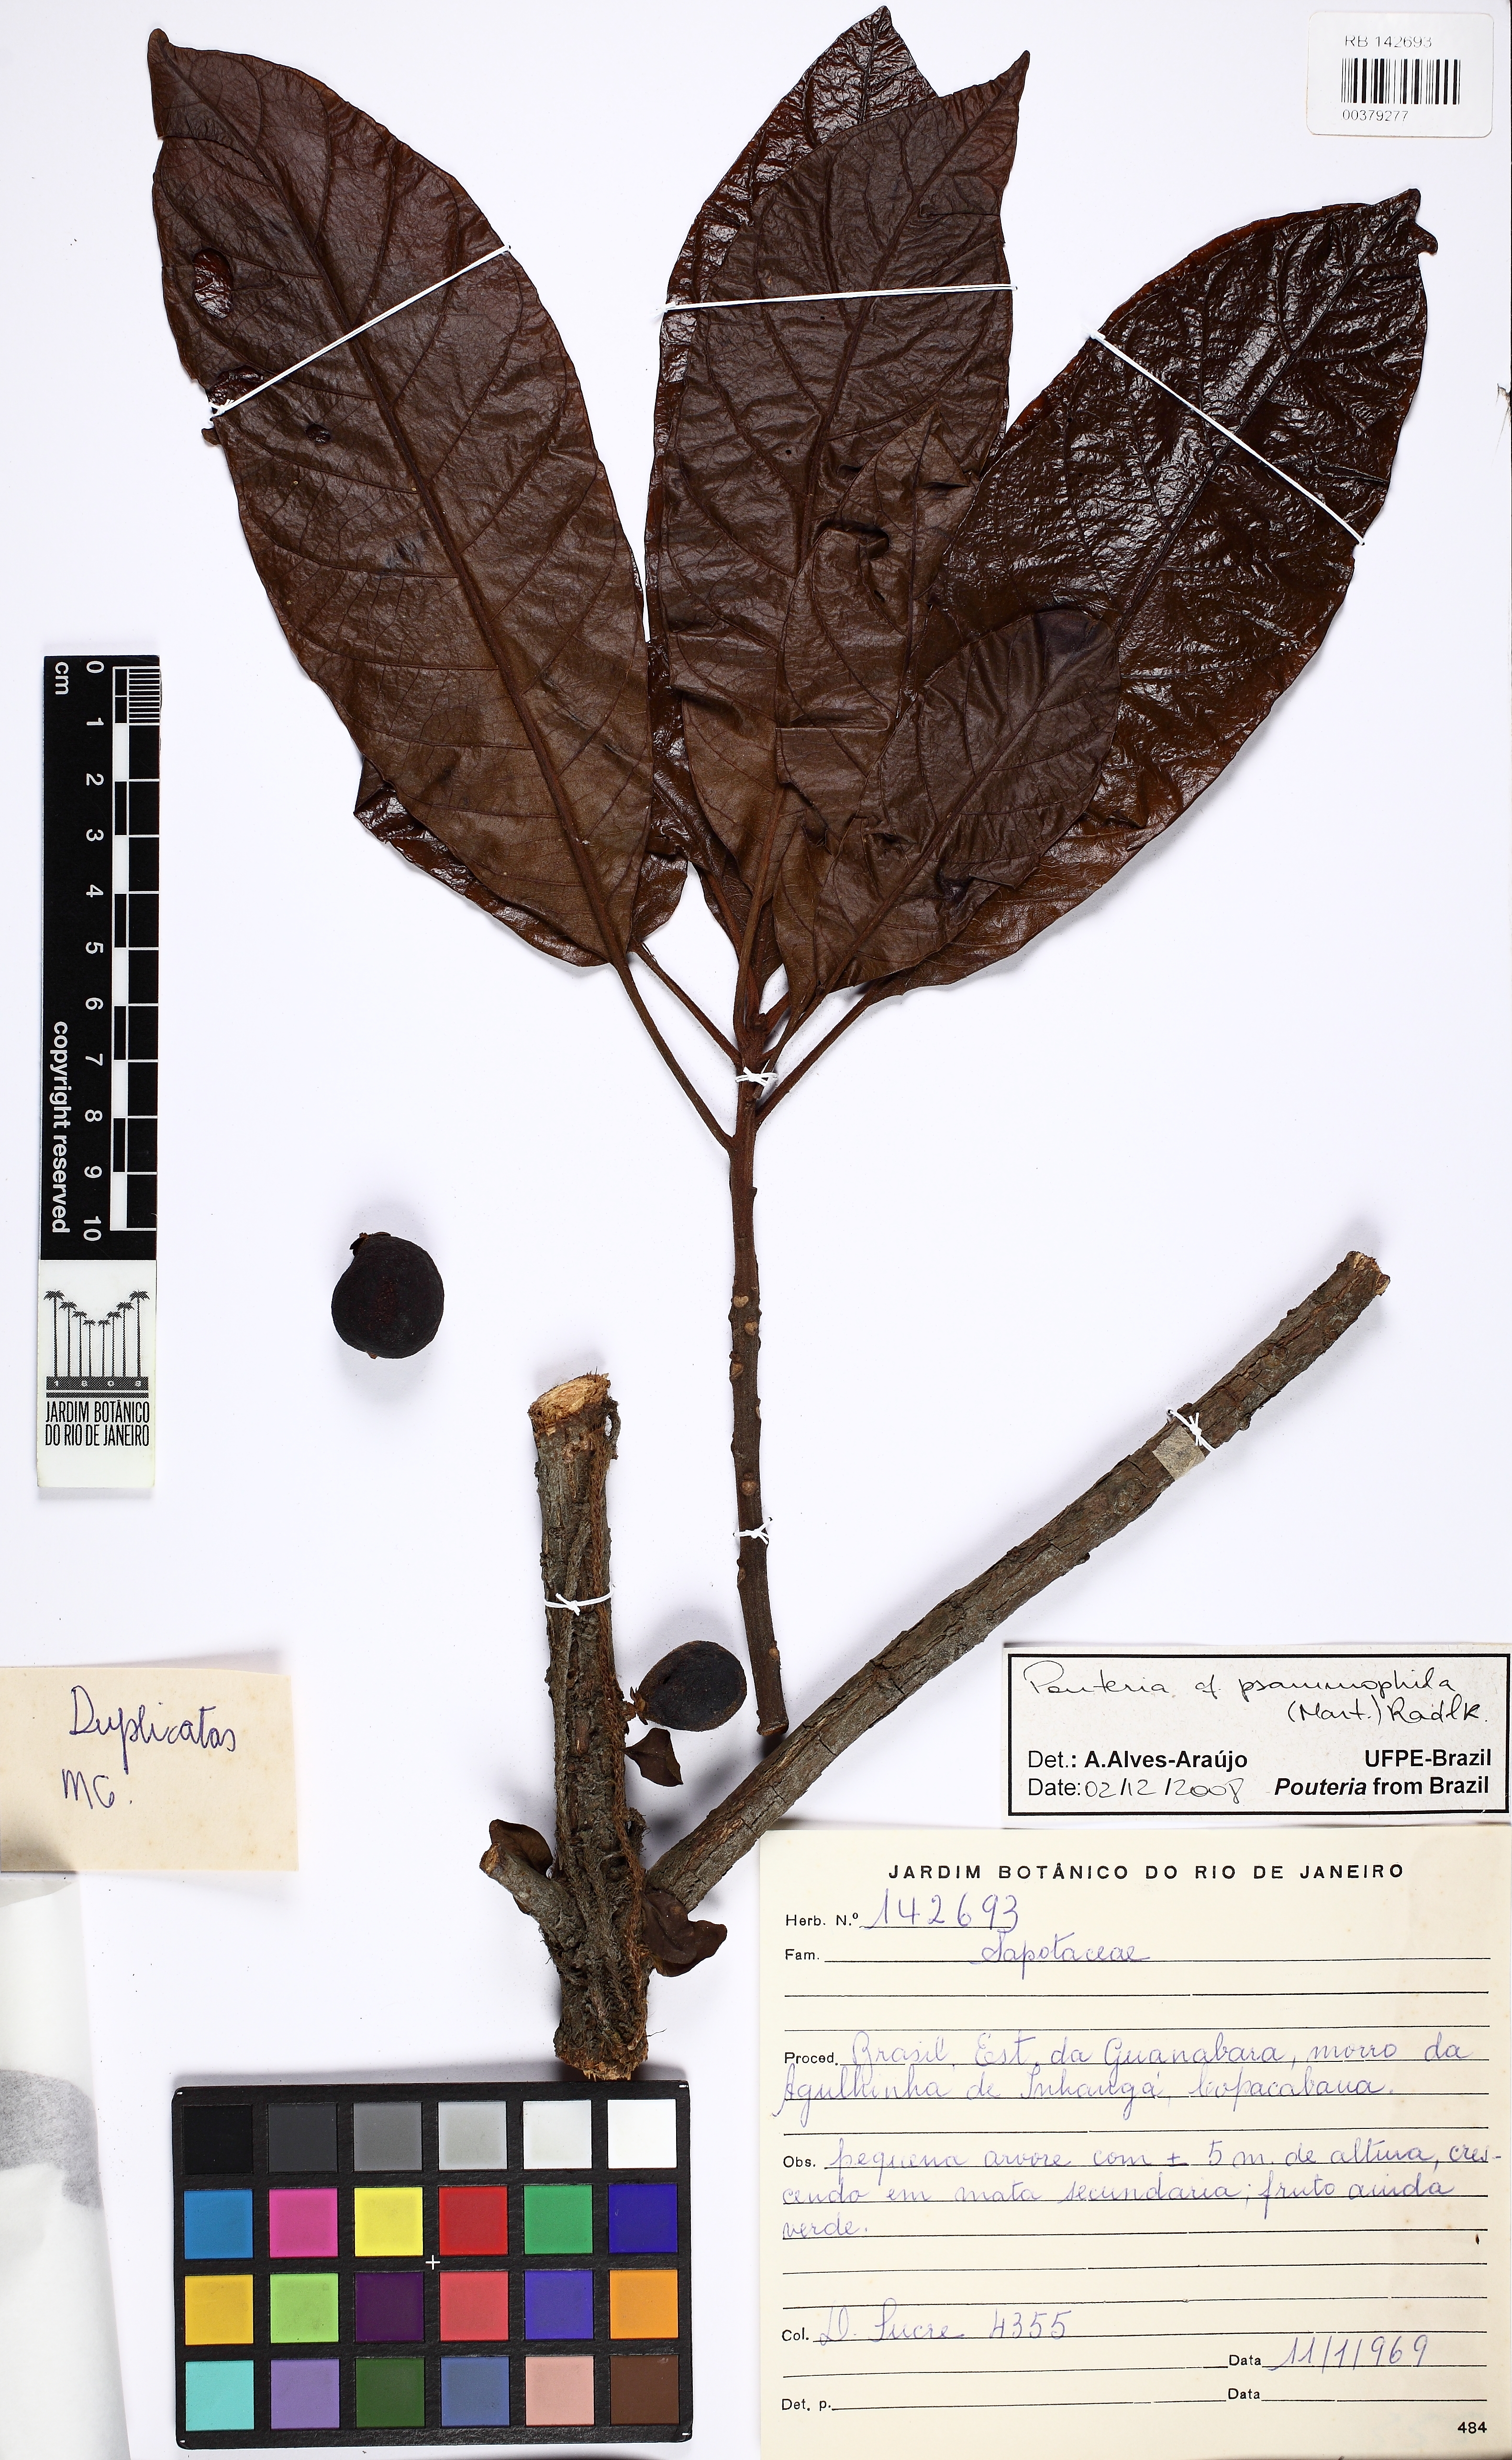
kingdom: Plantae
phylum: Tracheophyta
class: Magnoliopsida
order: Ericales
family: Sapotaceae
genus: Pouteria
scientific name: Pouteria psammophila
